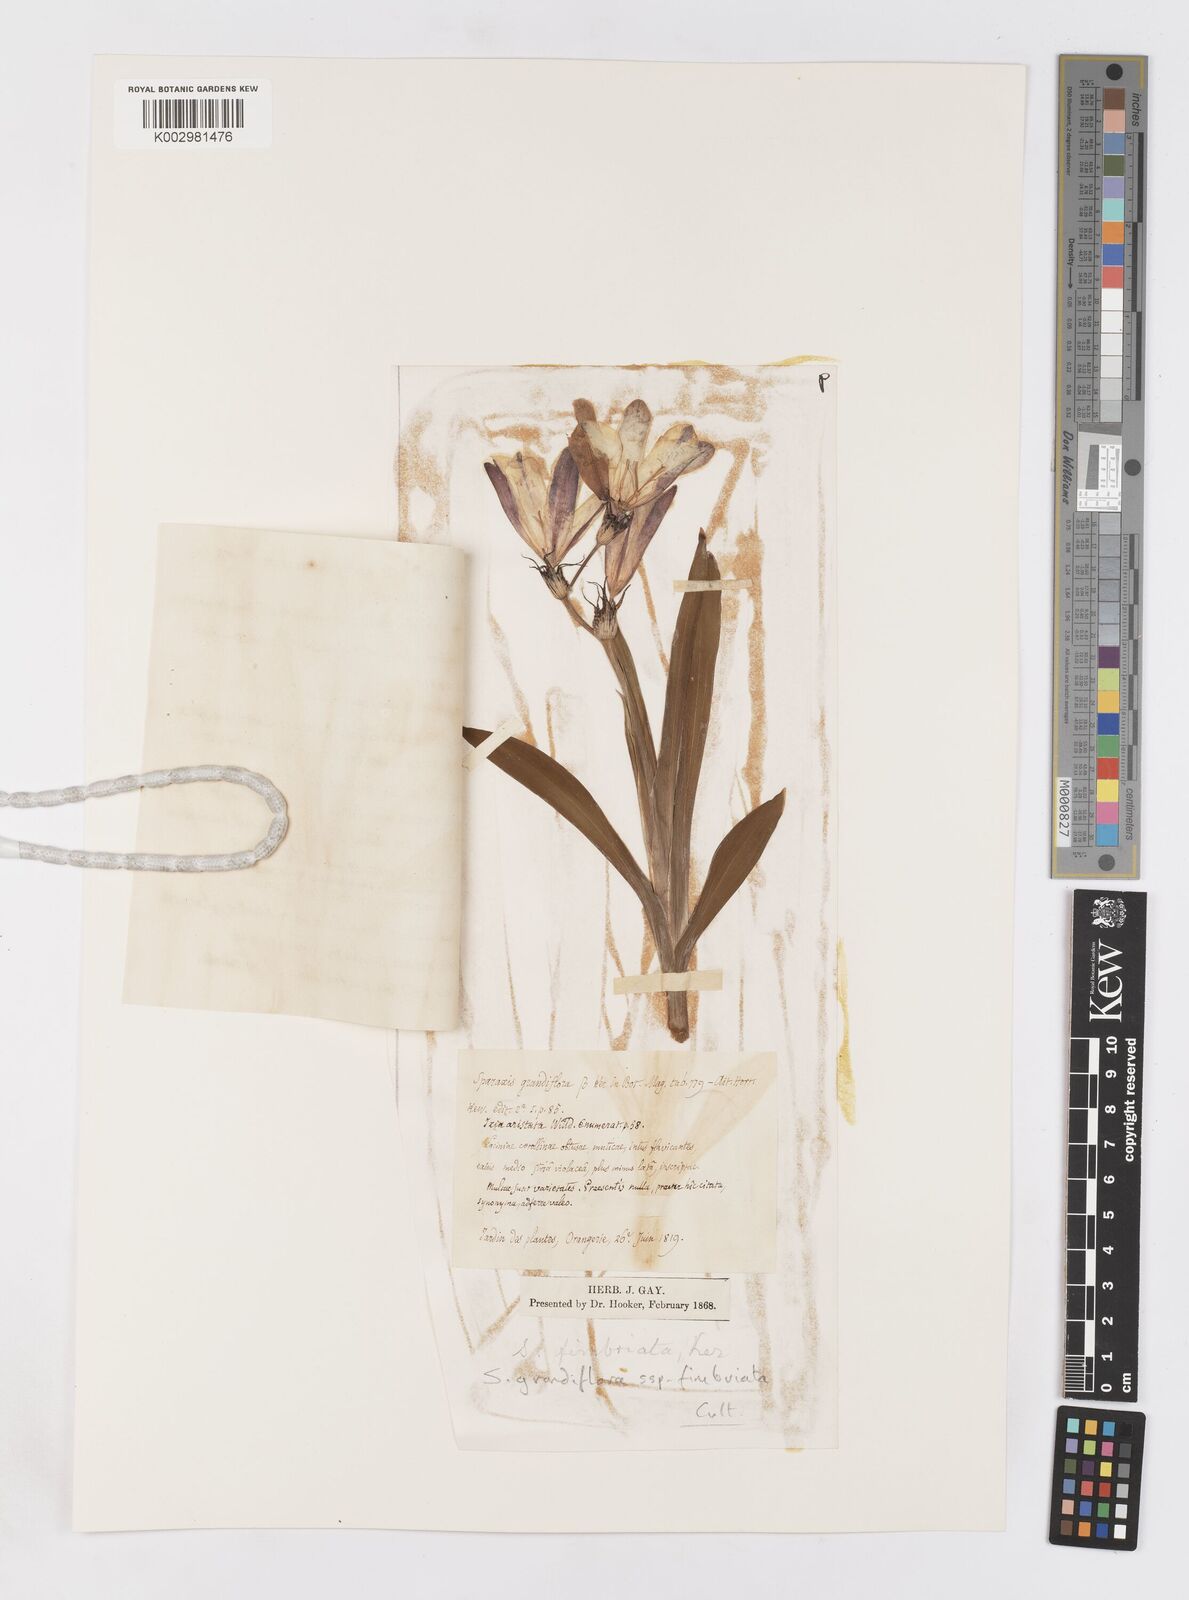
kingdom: Plantae
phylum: Tracheophyta
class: Liliopsida
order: Asparagales
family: Iridaceae
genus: Sparaxis
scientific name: Sparaxis grandiflora
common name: Plain harlequin-flower
